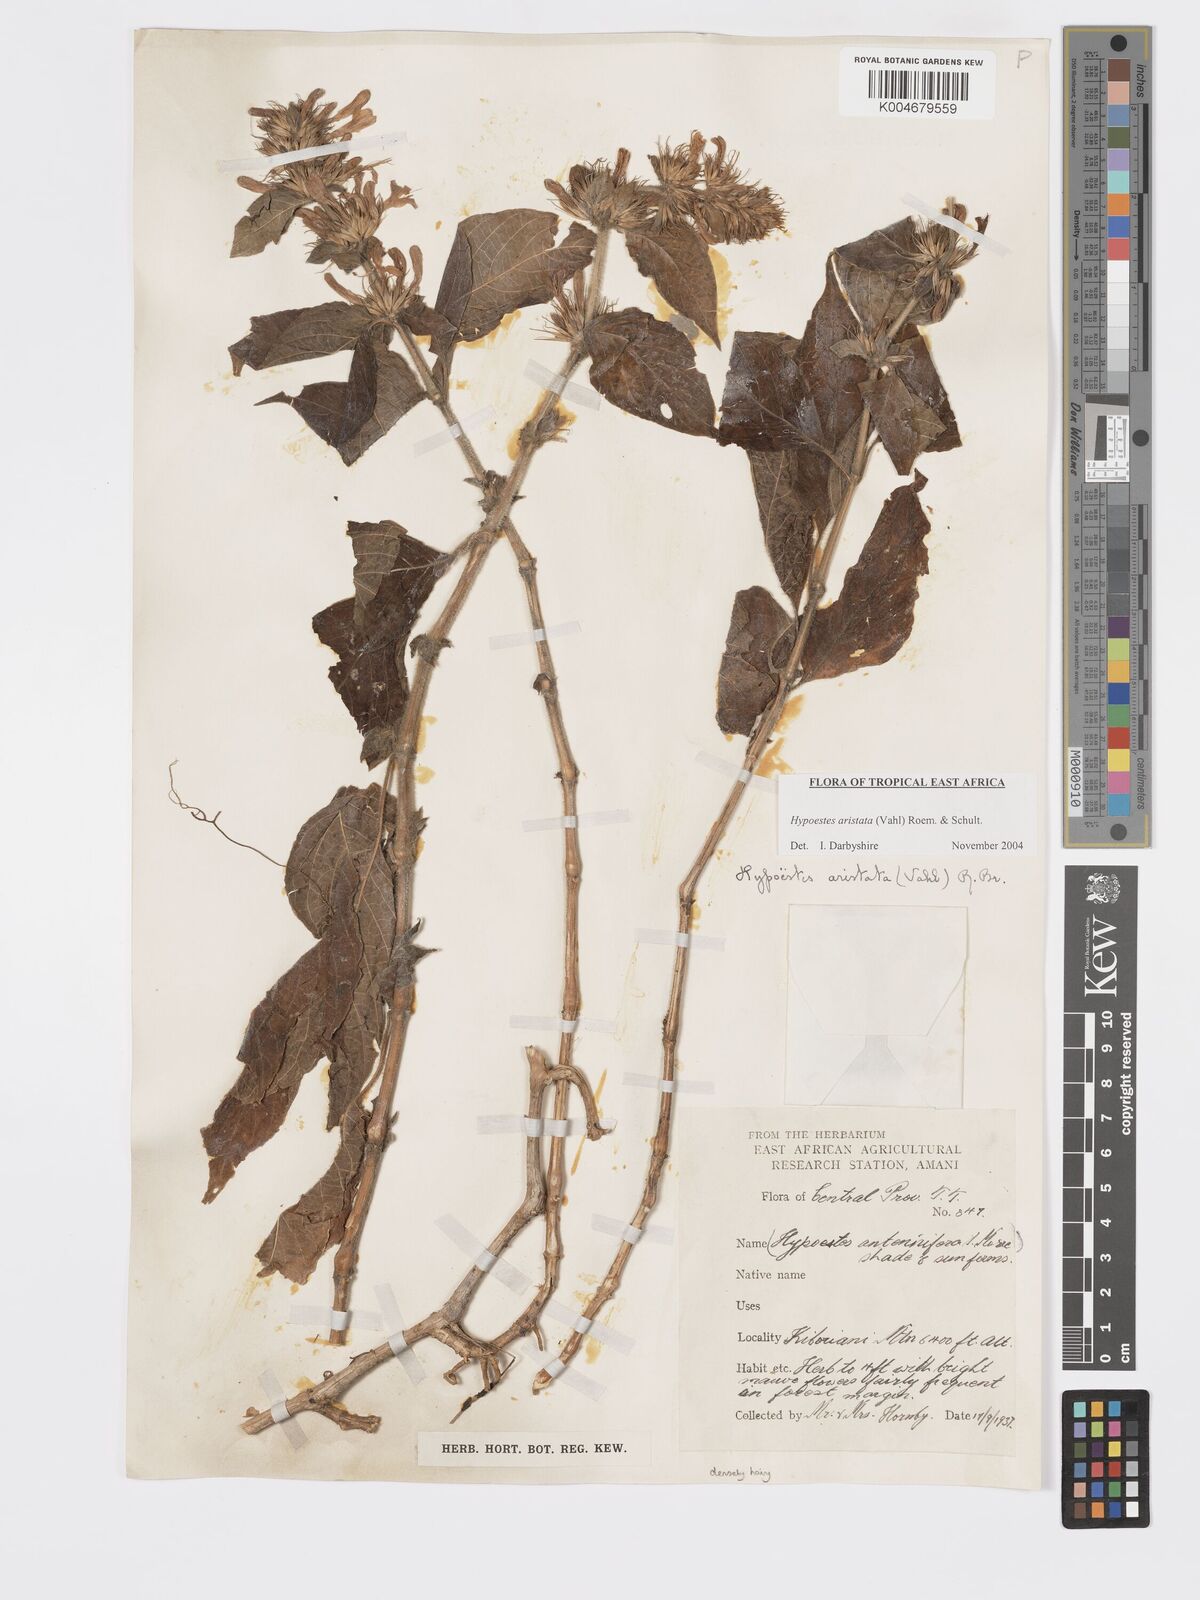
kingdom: Plantae
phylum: Tracheophyta
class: Magnoliopsida
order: Lamiales
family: Acanthaceae
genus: Hypoestes
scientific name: Hypoestes aristata
